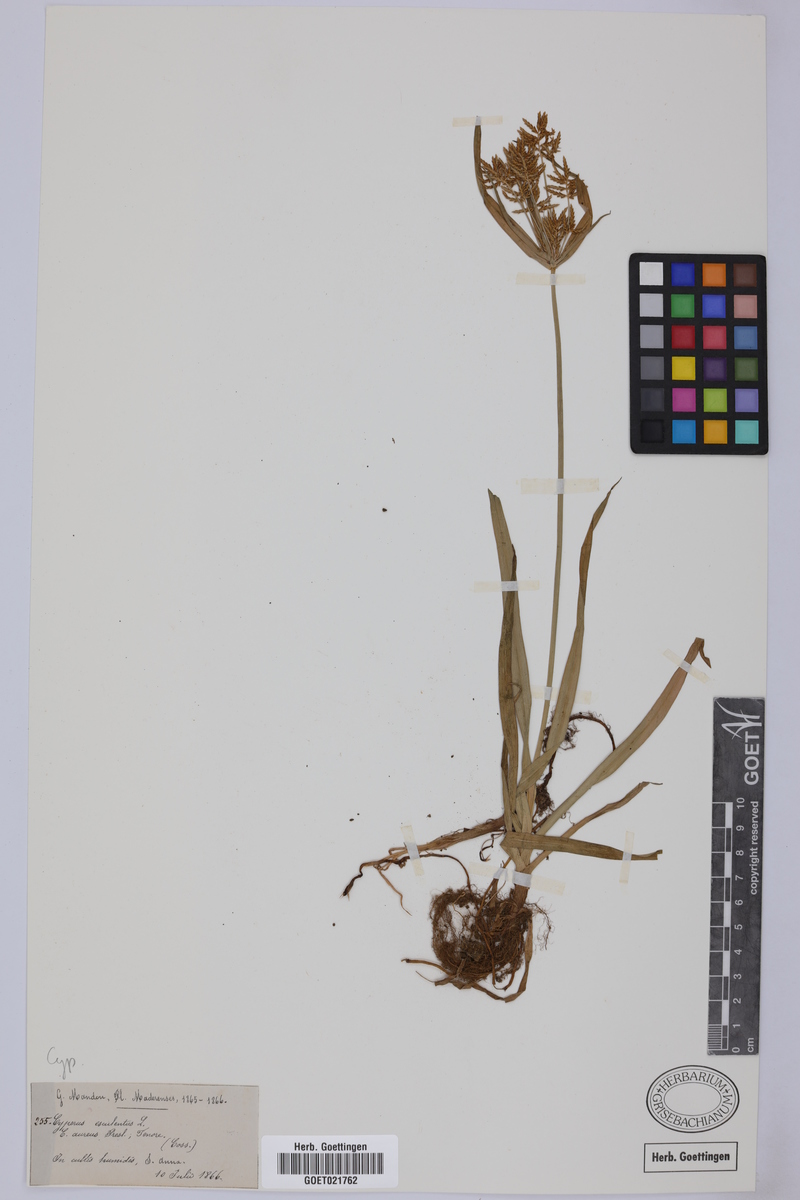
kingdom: Plantae
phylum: Tracheophyta
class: Liliopsida
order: Poales
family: Cyperaceae
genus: Cyperus
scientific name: Cyperus esculentus
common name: Yellow nutsedge
